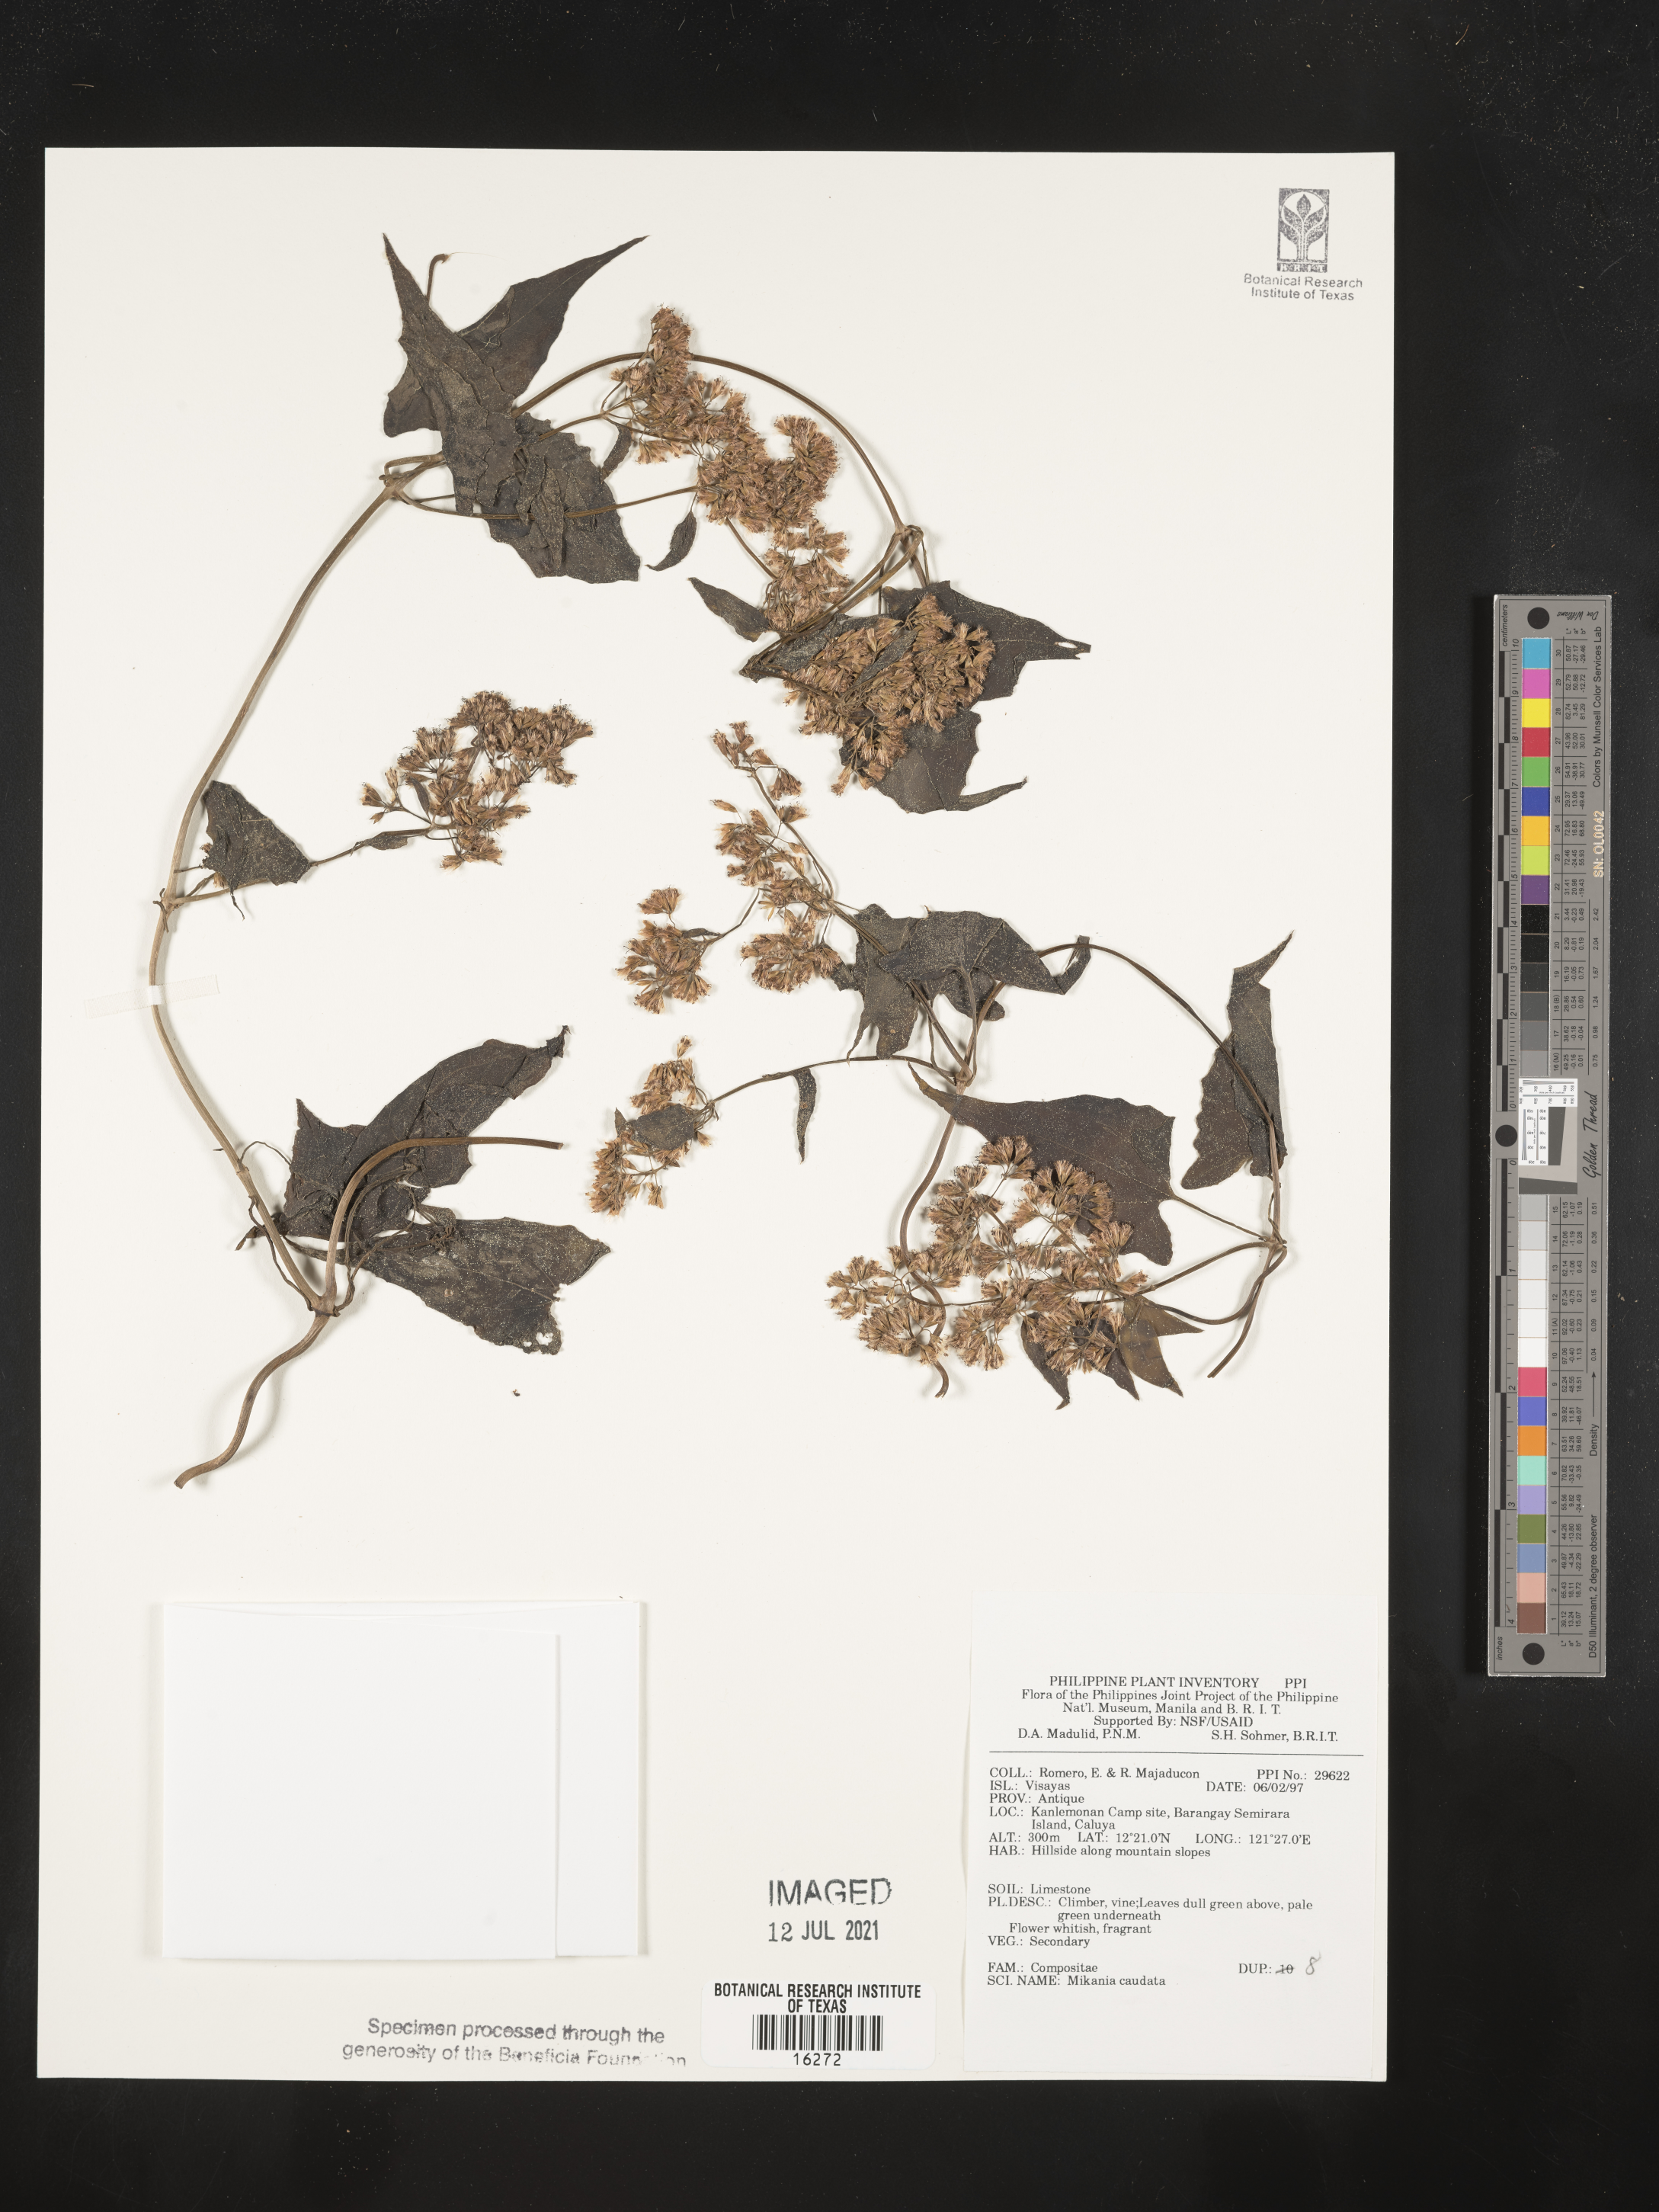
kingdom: Plantae
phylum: Tracheophyta
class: Magnoliopsida
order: Asterales
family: Asteraceae
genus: Mikania
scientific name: Mikania banisteriae
